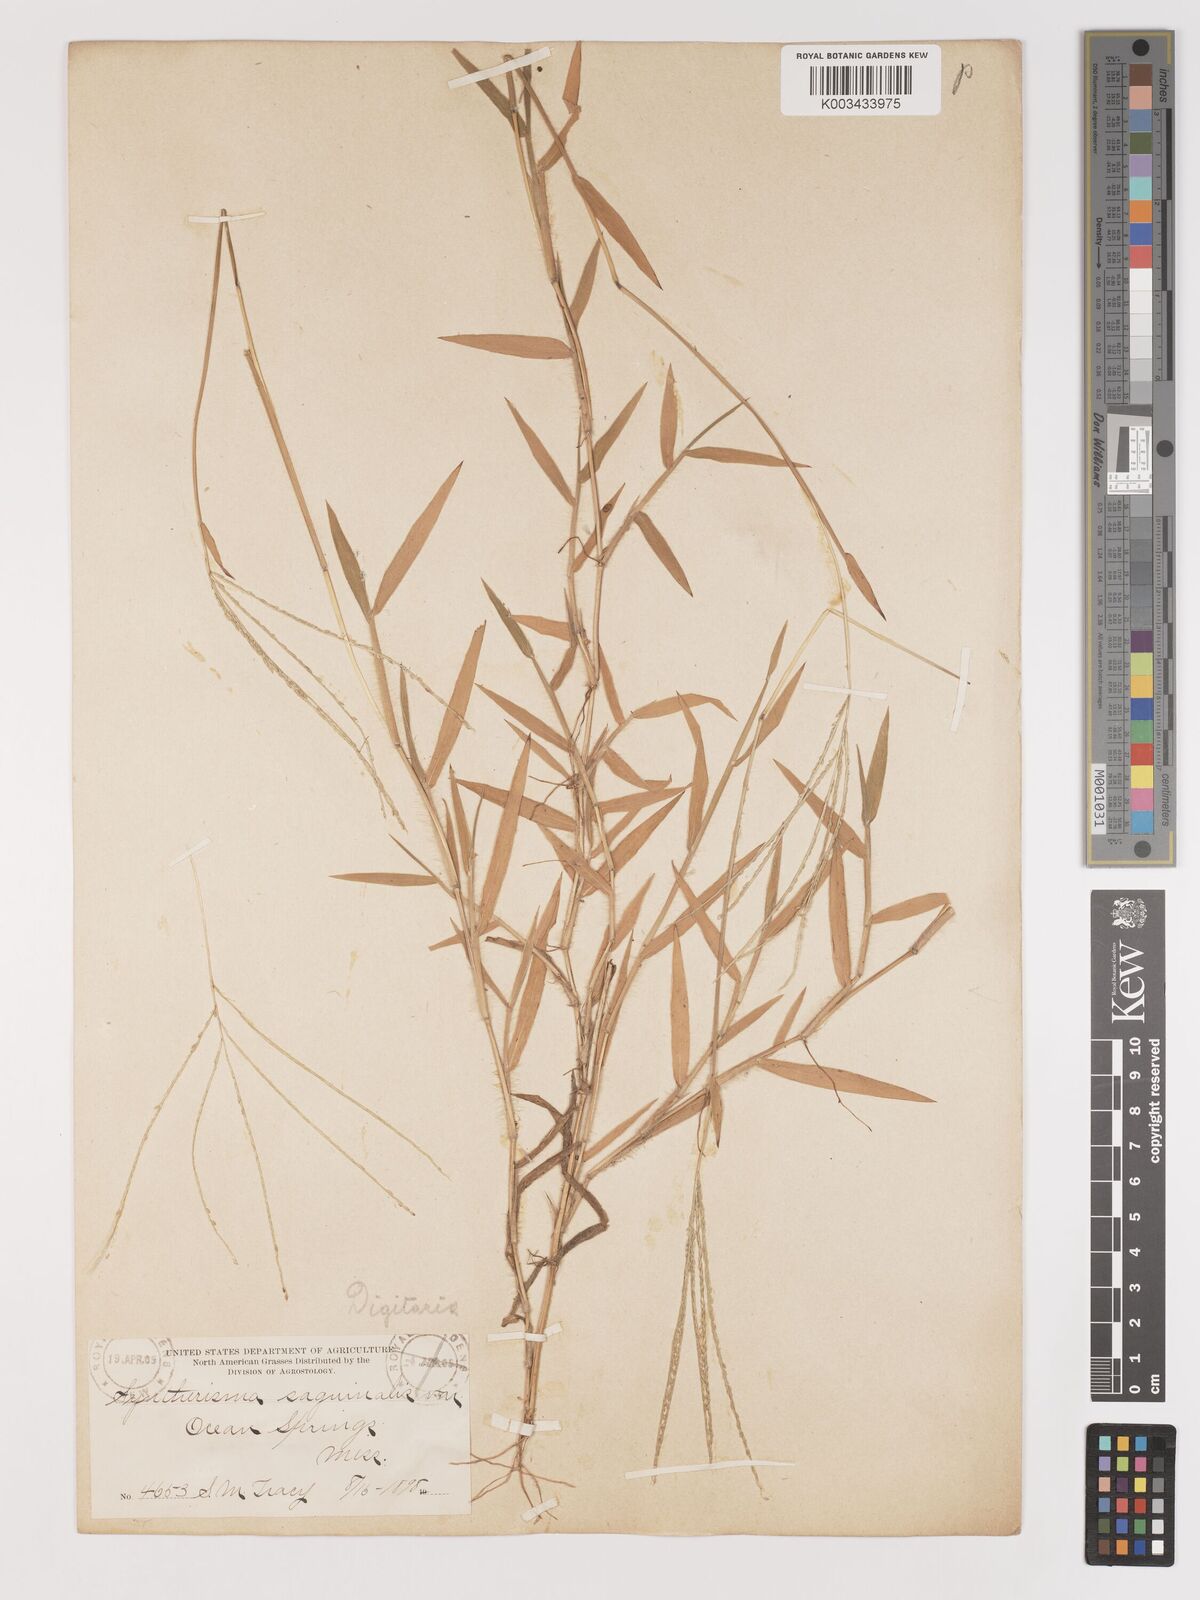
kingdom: Plantae
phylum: Tracheophyta
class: Liliopsida
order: Poales
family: Poaceae
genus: Digitaria
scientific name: Digitaria serotina
